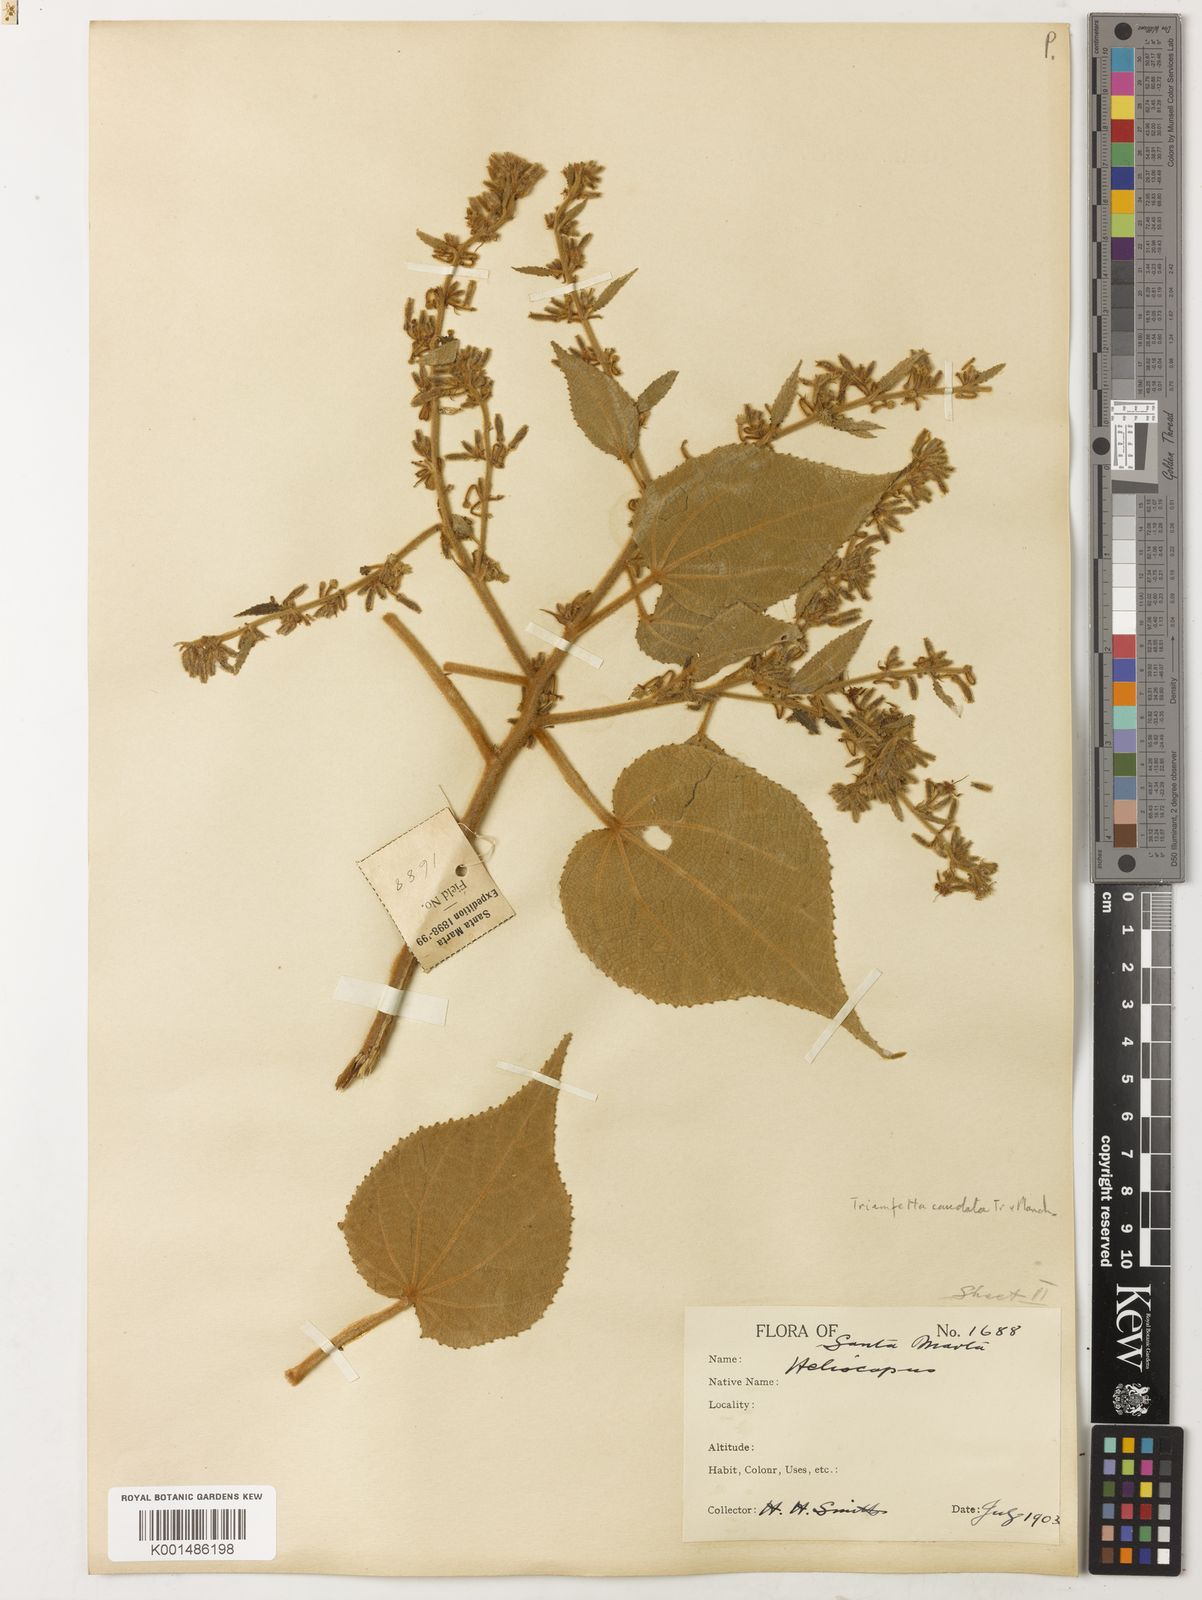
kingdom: Plantae
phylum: Tracheophyta
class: Magnoliopsida
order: Malvales
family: Malvaceae
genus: Triumfetta
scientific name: Triumfetta caudata
